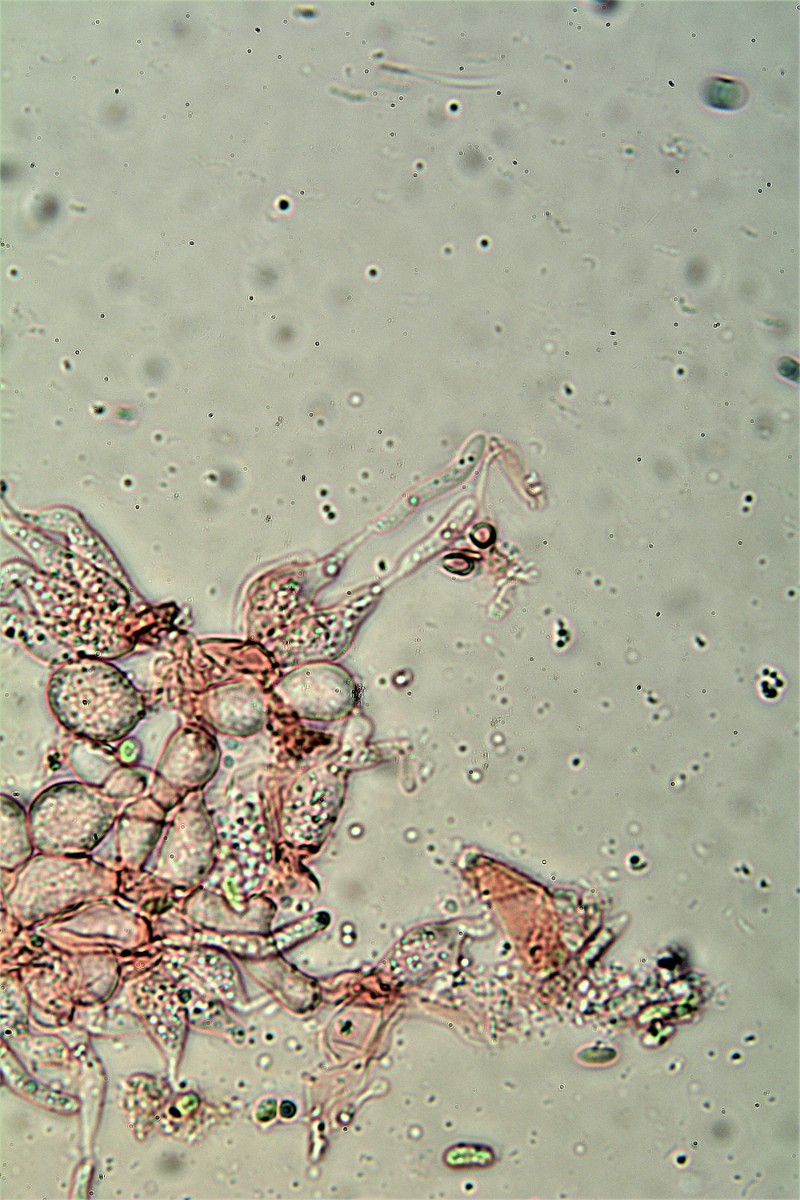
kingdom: Fungi
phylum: Basidiomycota
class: Agaricomycetes
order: Auriculariales
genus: Ceratosebacina
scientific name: Ceratosebacina calospora
